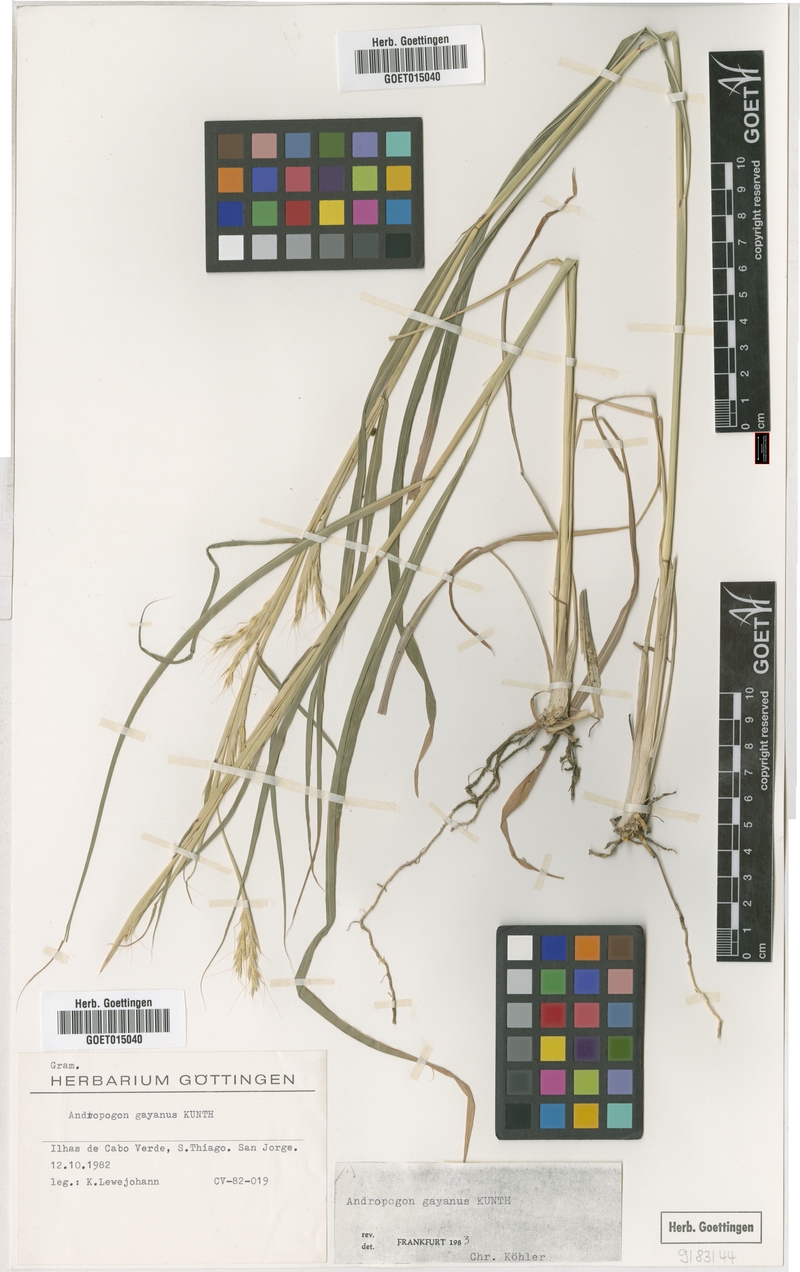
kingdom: Plantae
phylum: Tracheophyta
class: Liliopsida
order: Poales
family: Poaceae
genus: Andropogon
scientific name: Andropogon gayanus
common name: Tambuki grass
